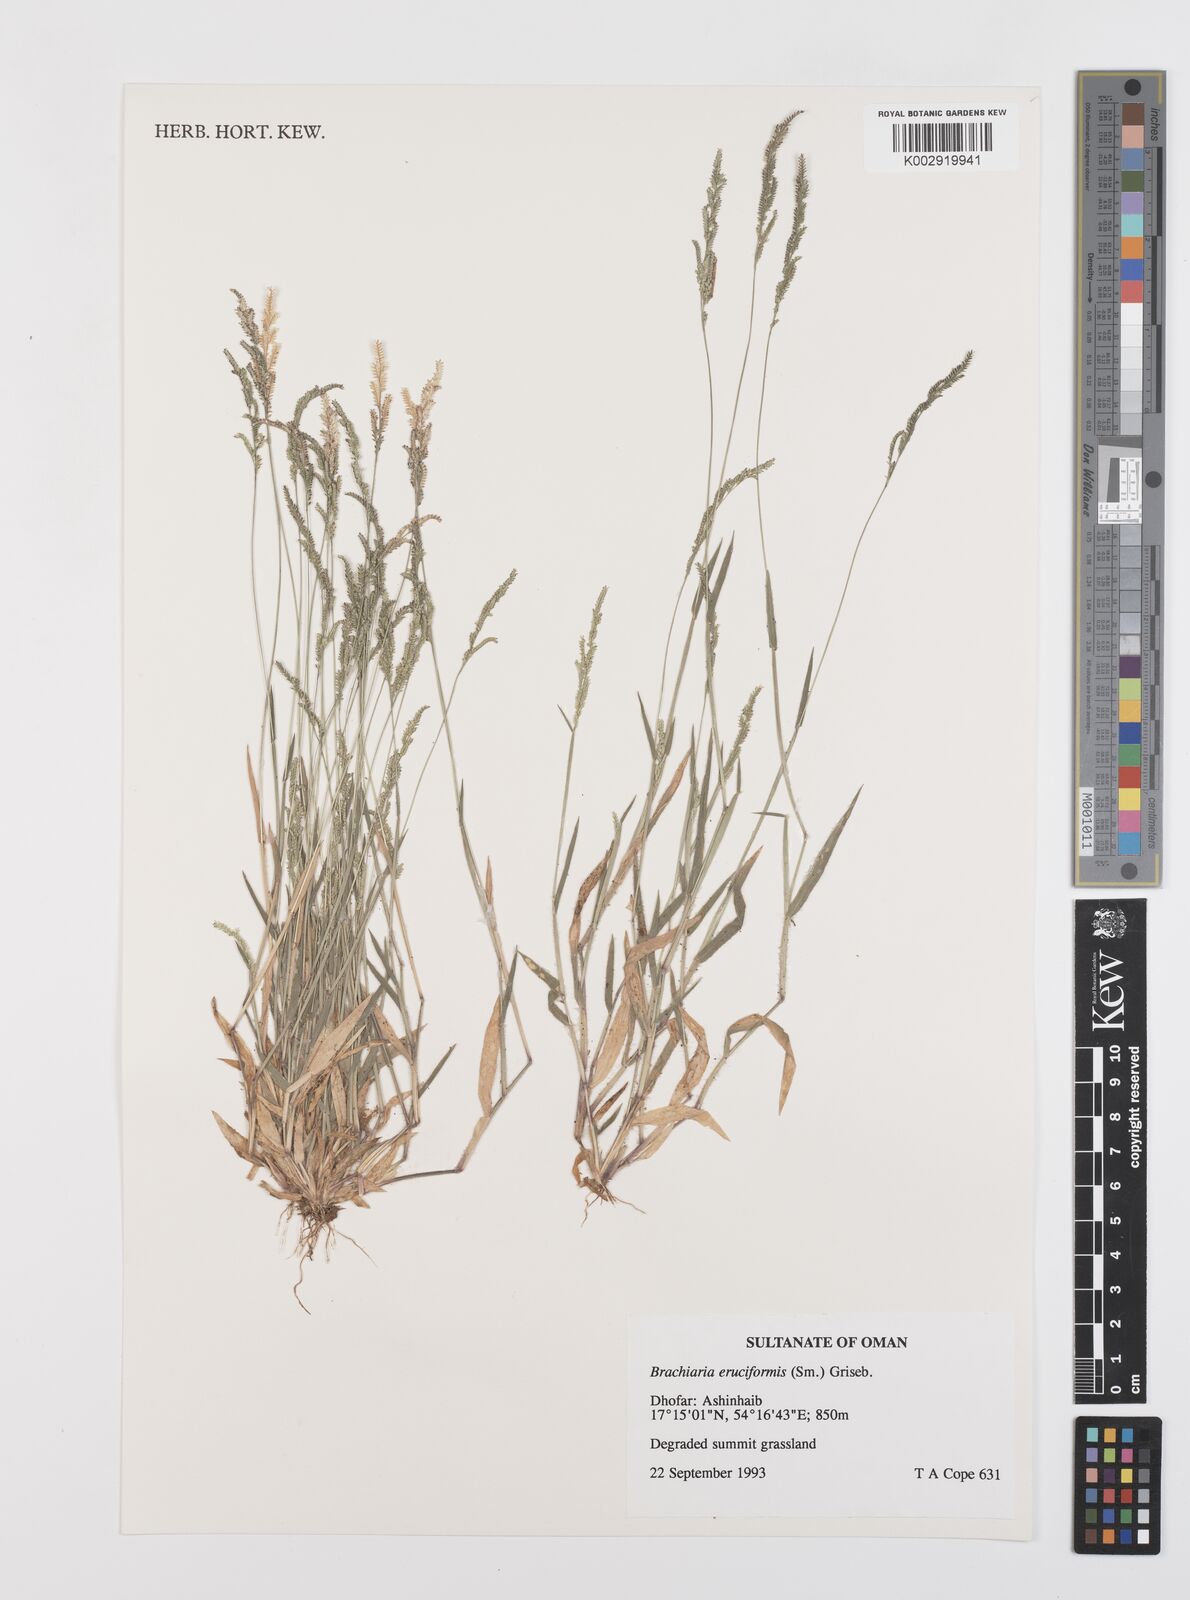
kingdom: Plantae
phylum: Tracheophyta
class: Liliopsida
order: Poales
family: Poaceae
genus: Moorochloa
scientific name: Moorochloa eruciformis
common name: Sweet signalgrass
